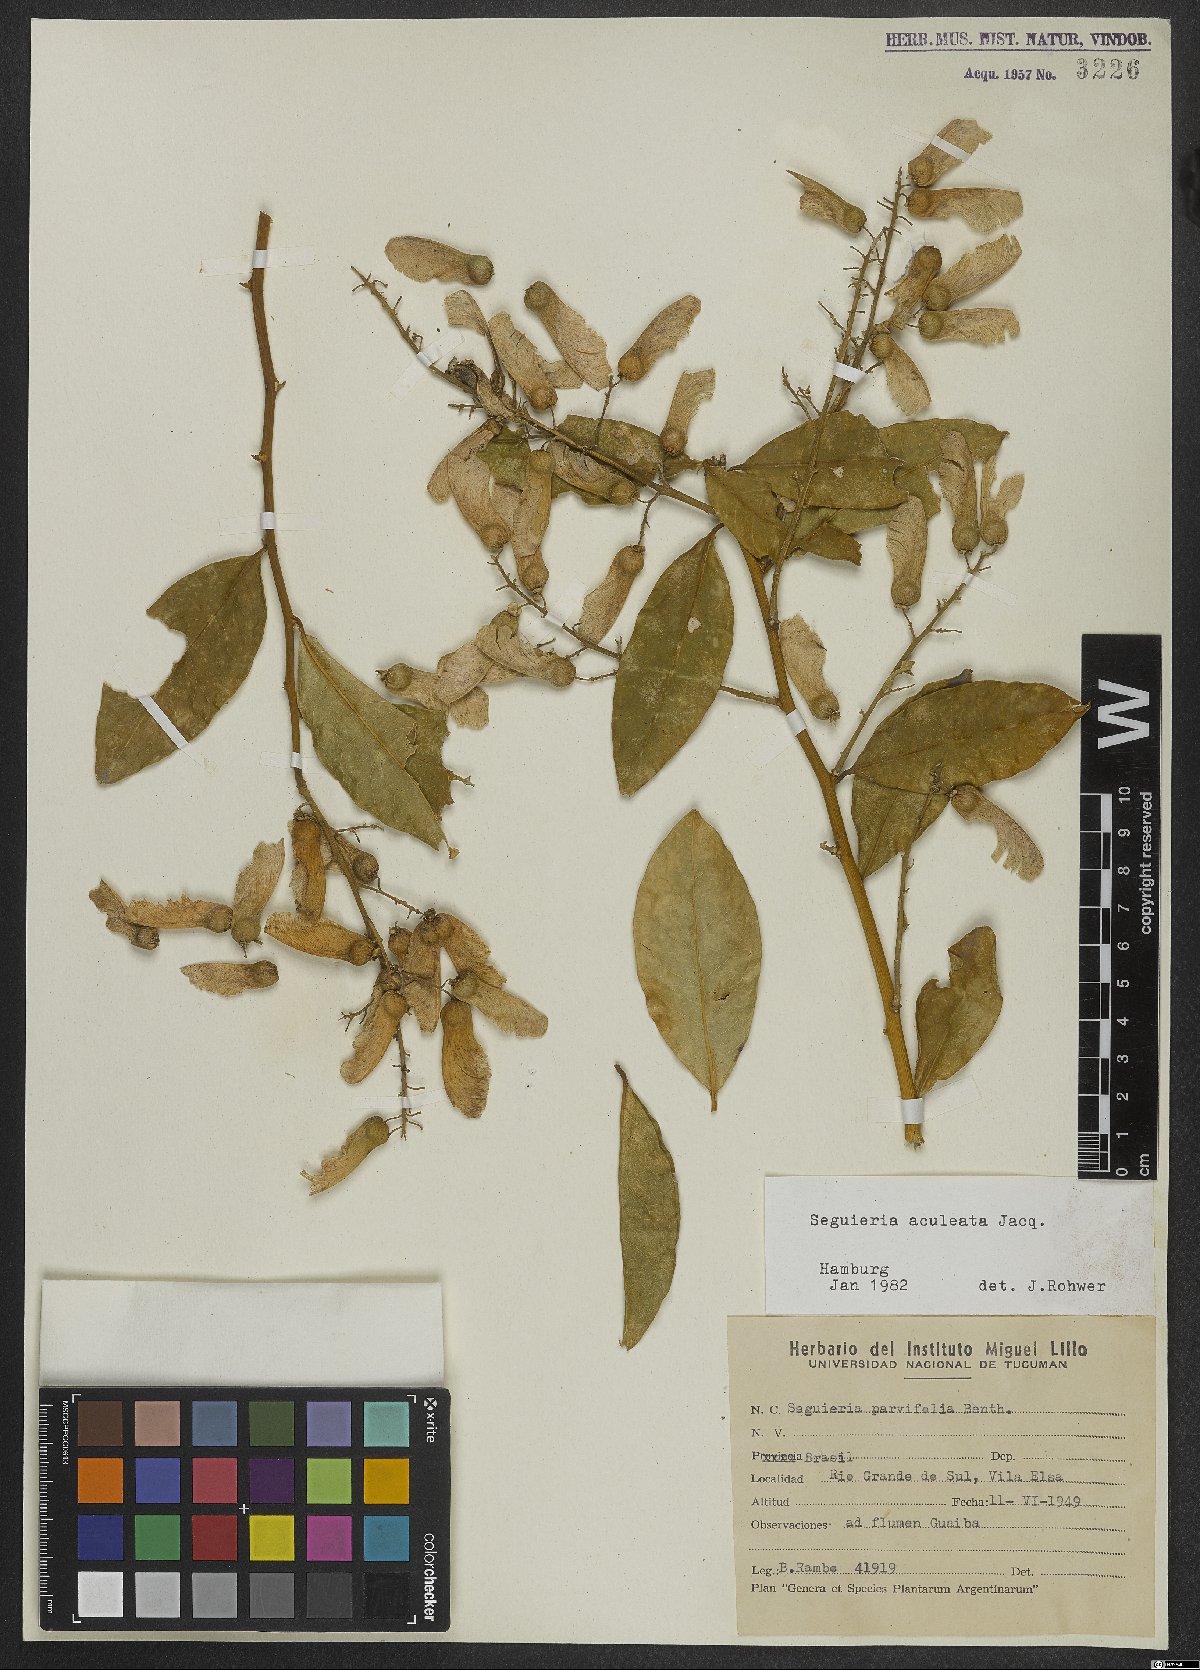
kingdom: Plantae
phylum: Tracheophyta
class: Magnoliopsida
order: Caryophyllales
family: Phytolaccaceae
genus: Seguieria
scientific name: Seguieria aculeata
